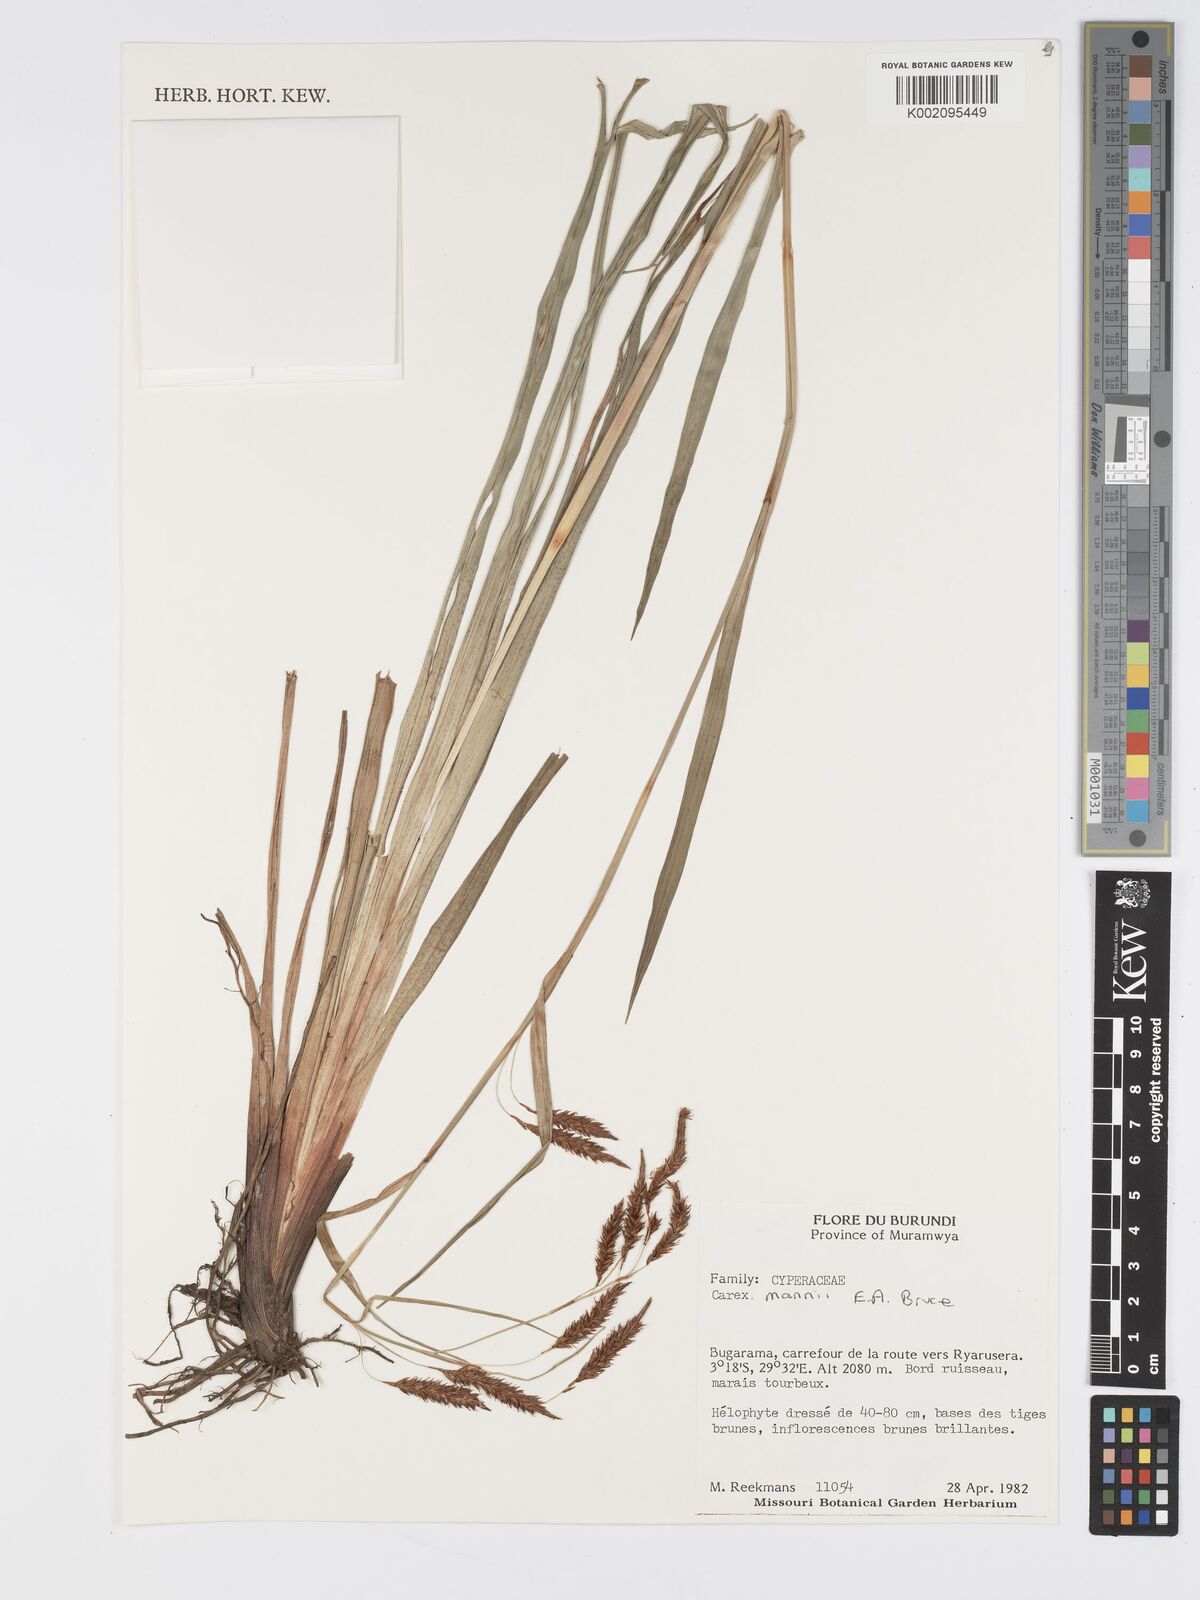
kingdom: Plantae
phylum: Tracheophyta
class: Liliopsida
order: Poales
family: Cyperaceae
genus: Carex
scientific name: Carex mannii
